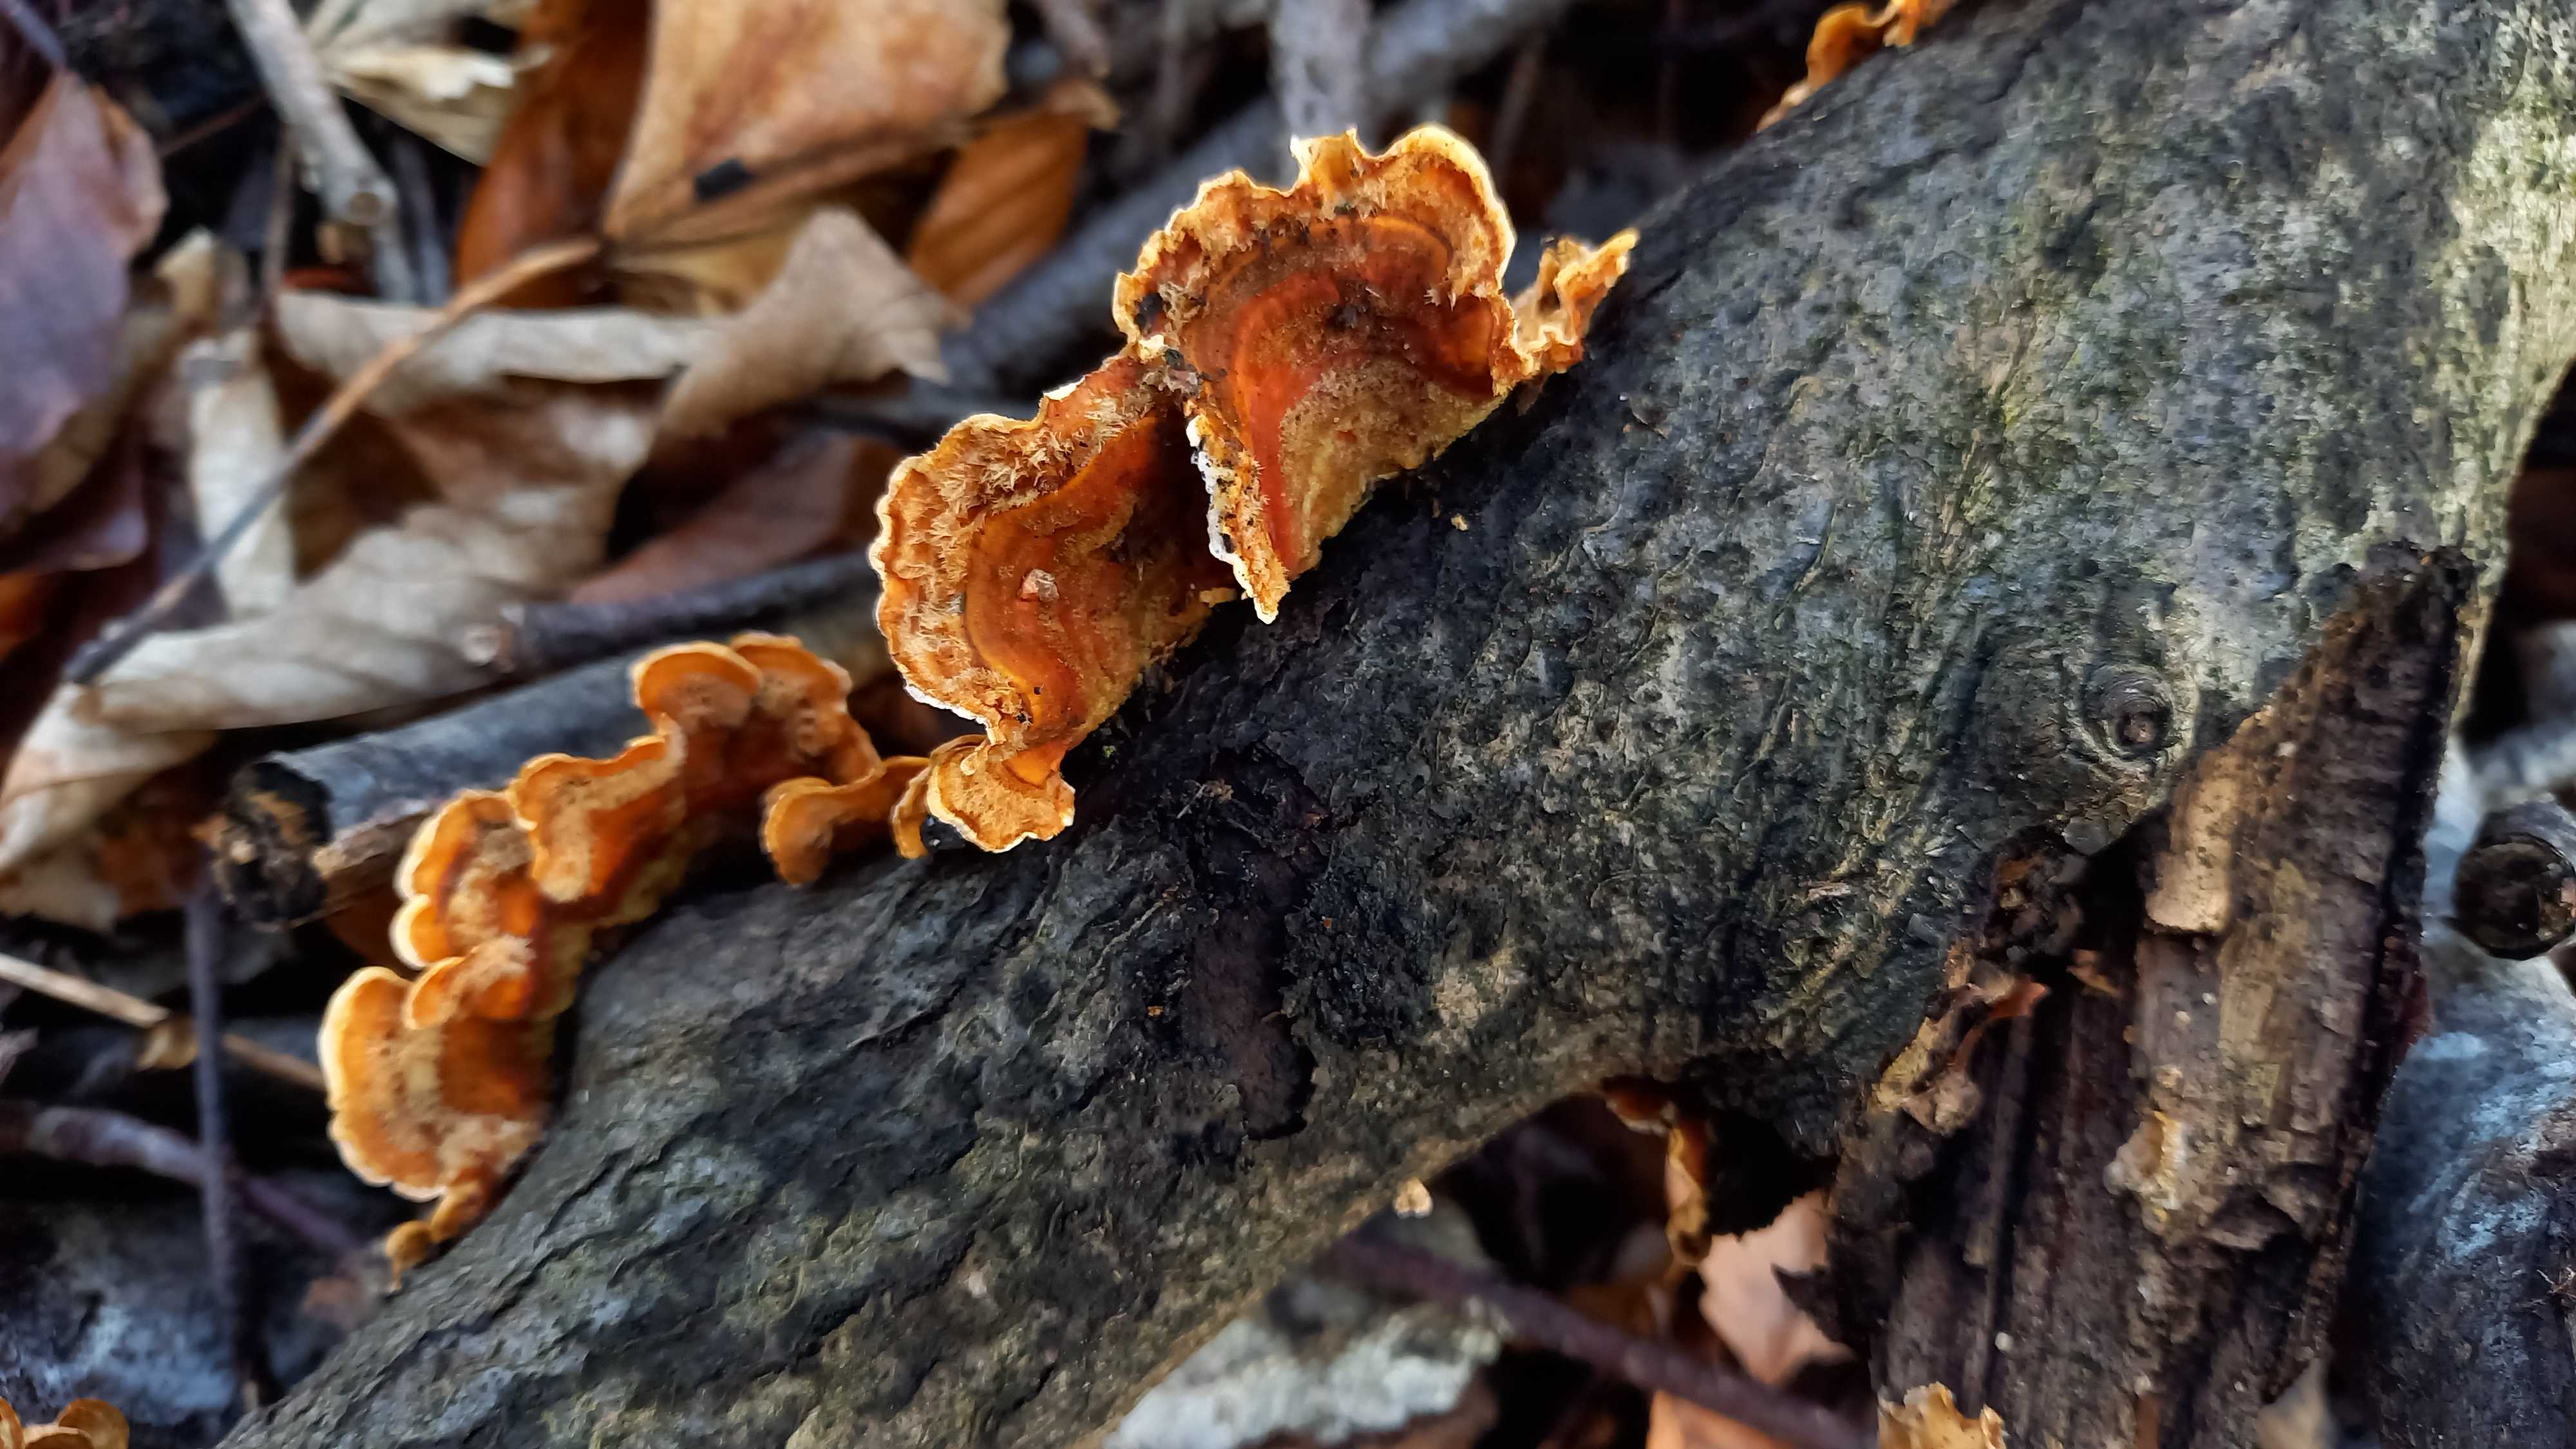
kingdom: Fungi
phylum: Basidiomycota
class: Agaricomycetes
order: Russulales
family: Stereaceae
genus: Stereum
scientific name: Stereum hirsutum
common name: håret lædersvamp
